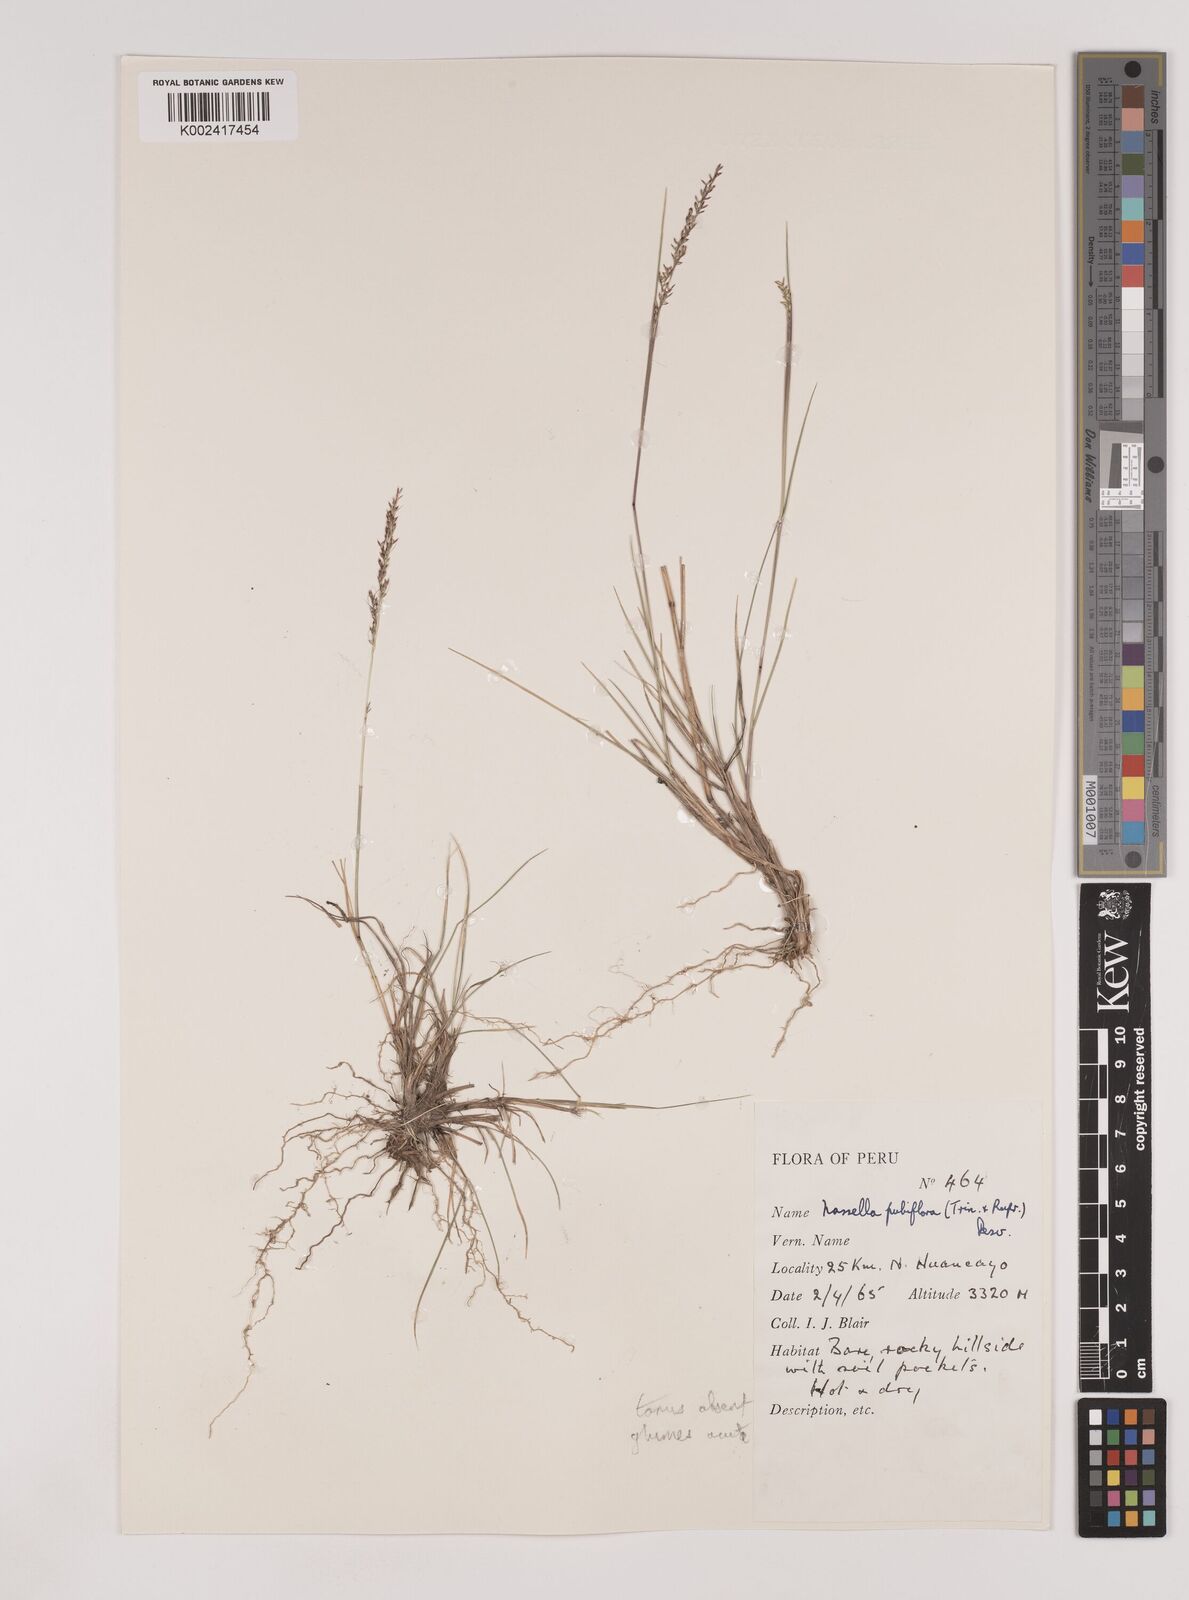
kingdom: Plantae
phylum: Tracheophyta
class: Liliopsida
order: Poales
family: Poaceae
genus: Nassella
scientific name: Nassella meyeniana
